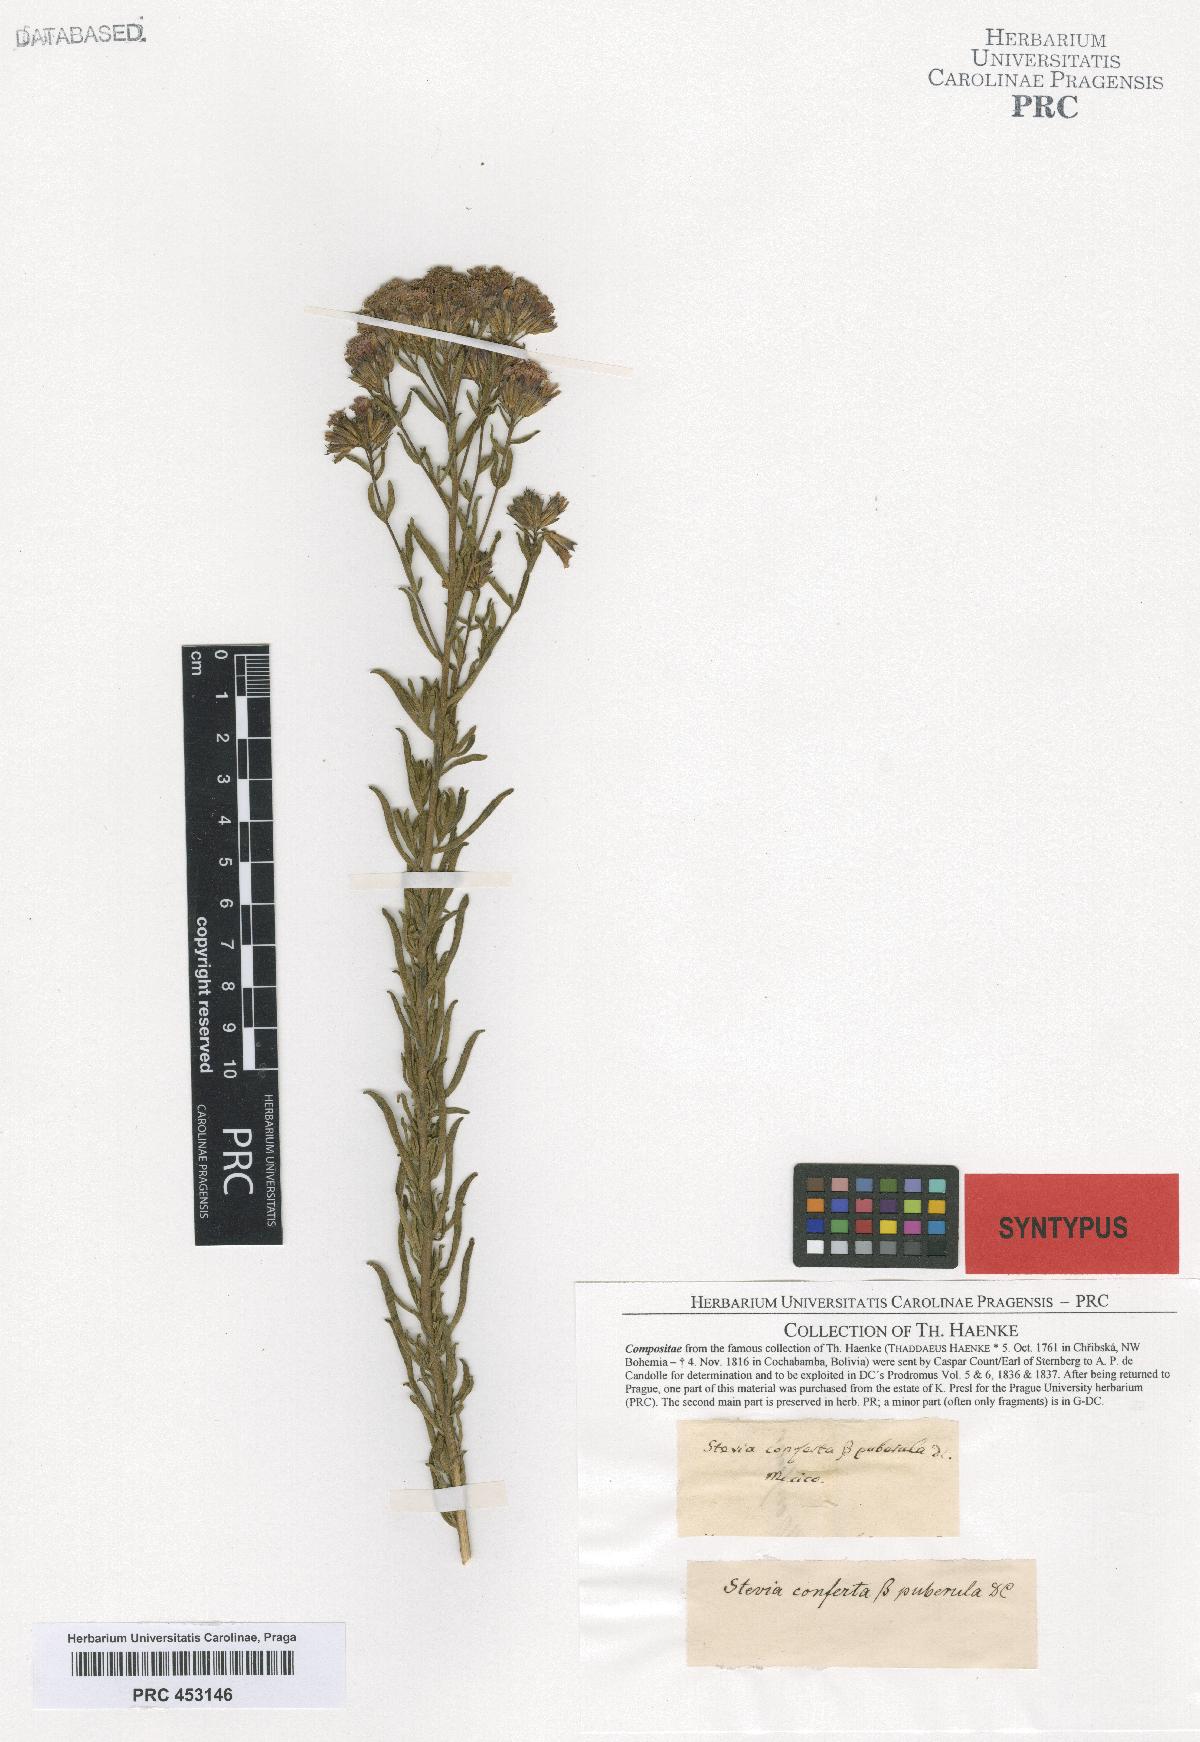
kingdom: Plantae
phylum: Tracheophyta
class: Magnoliopsida
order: Asterales
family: Asteraceae
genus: Stevia
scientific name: Stevia pilosa
